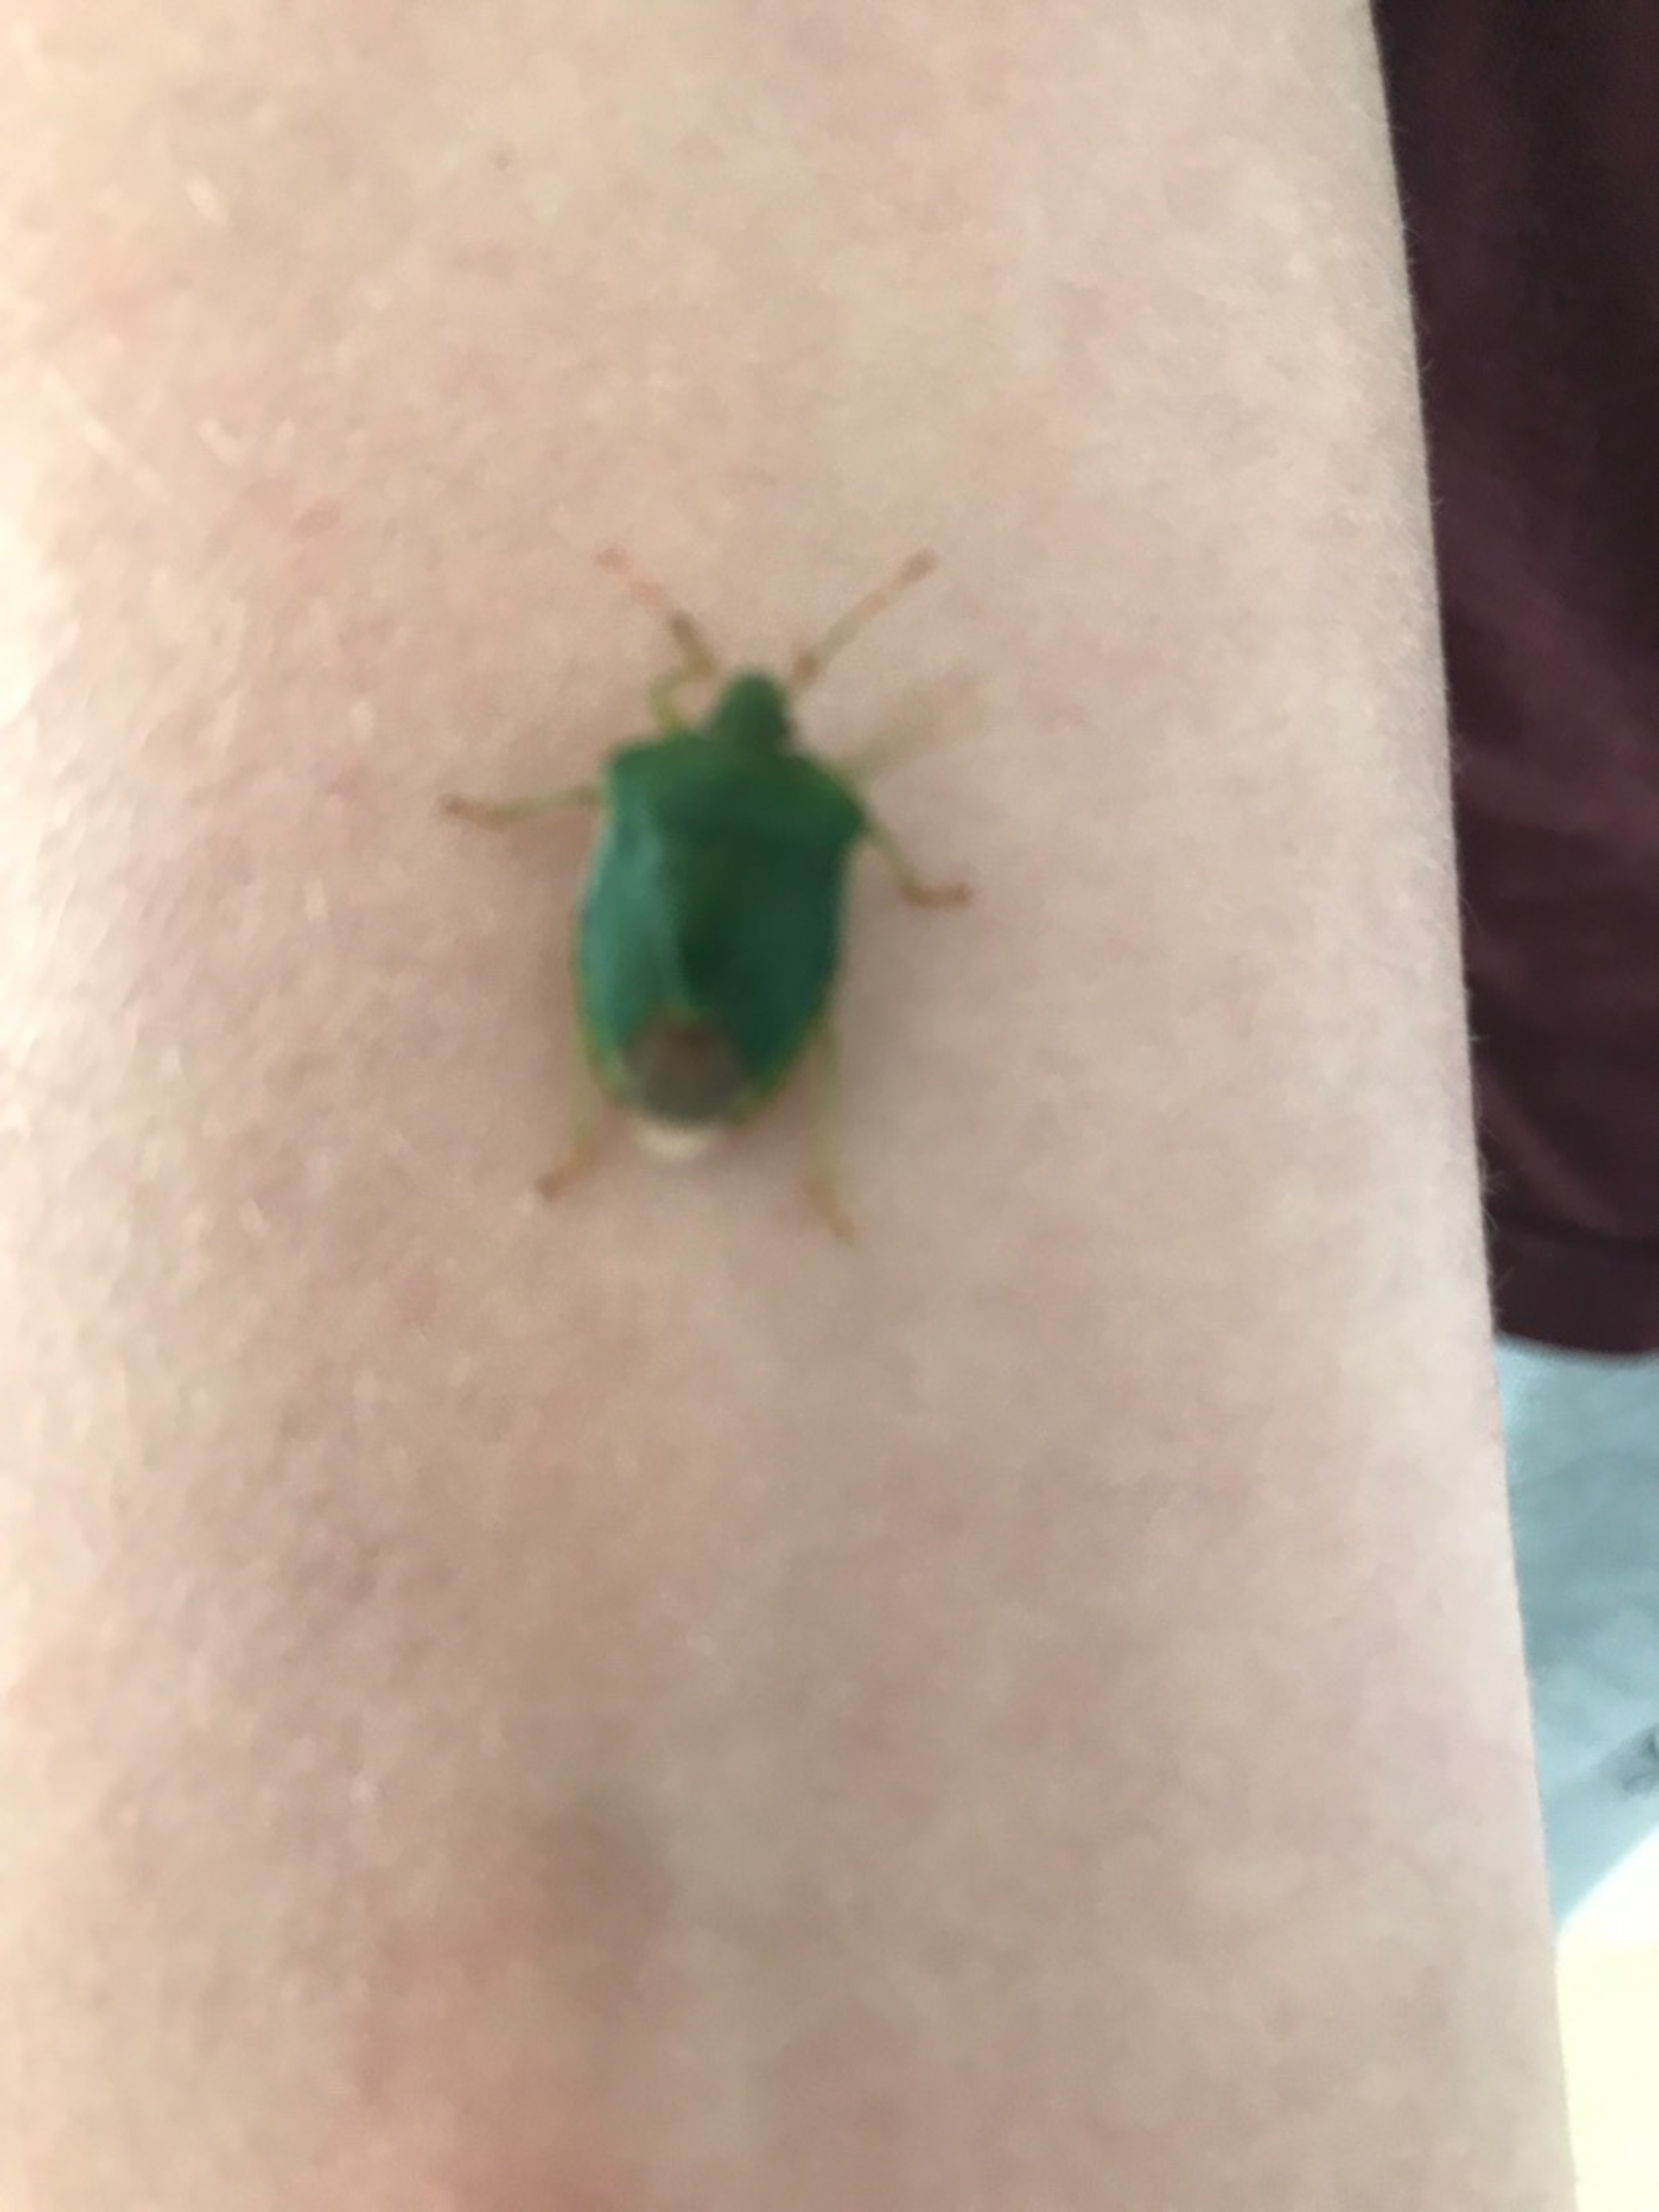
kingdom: Animalia
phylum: Arthropoda
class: Insecta
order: Hemiptera
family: Pentatomidae
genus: Palomena
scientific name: Palomena prasina
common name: Grøn bredtæge
